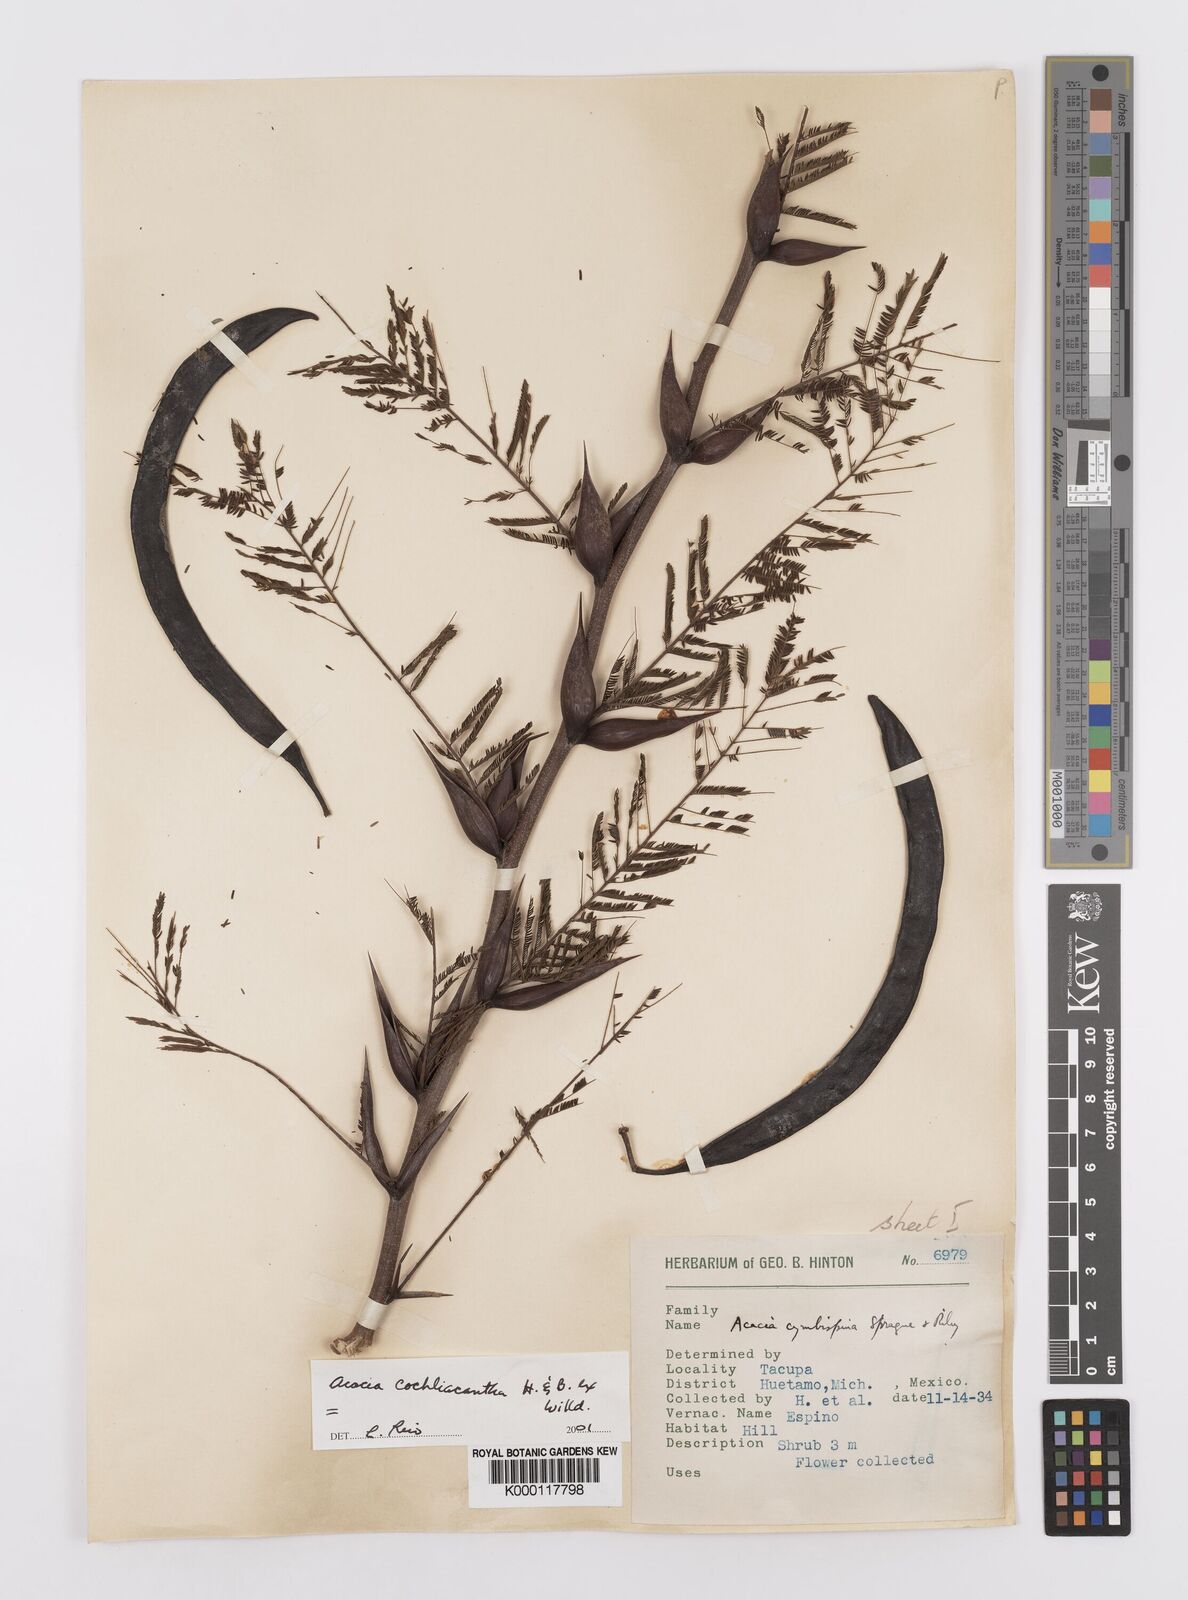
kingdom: Plantae
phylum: Tracheophyta
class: Magnoliopsida
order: Fabales
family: Fabaceae
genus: Vachellia
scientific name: Vachellia campeachiana
